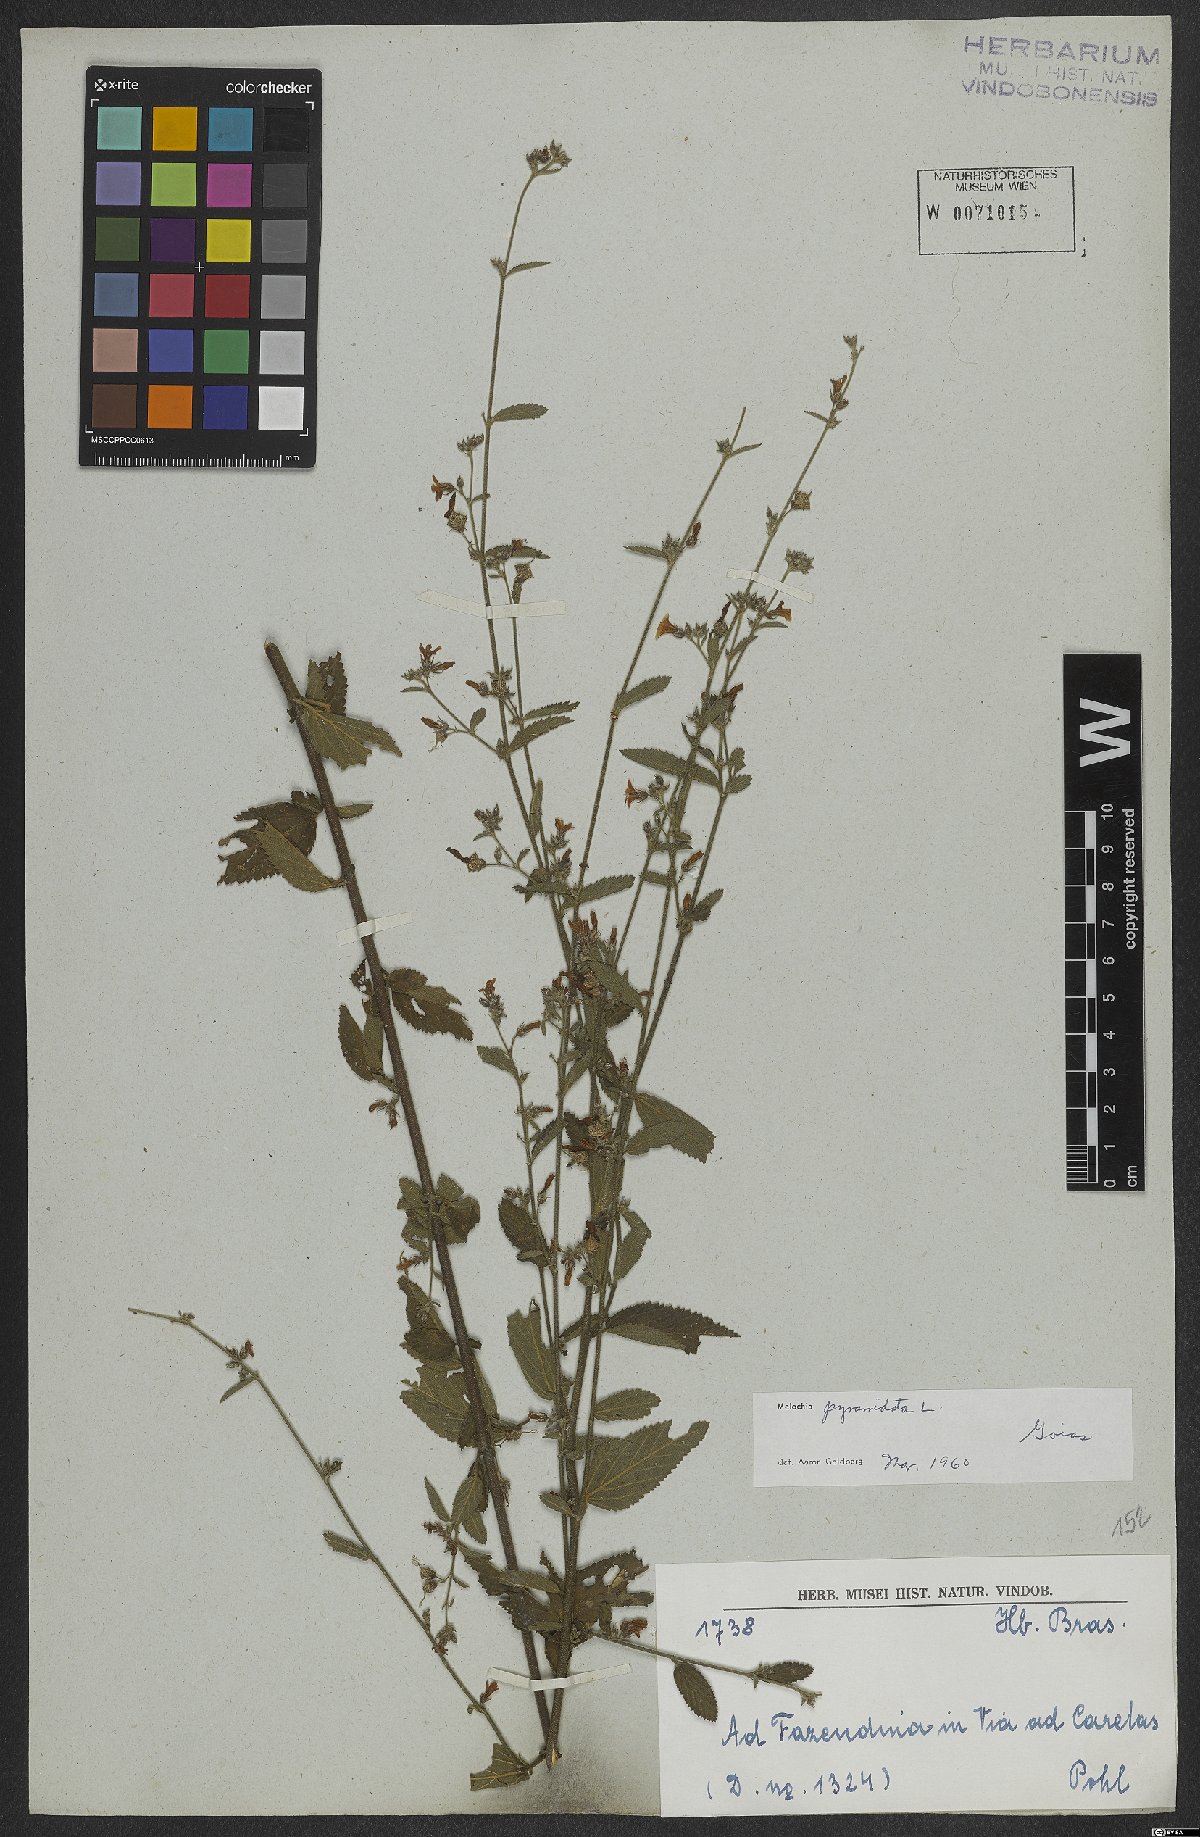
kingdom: Plantae
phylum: Tracheophyta
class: Magnoliopsida
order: Malvales
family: Malvaceae
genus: Melochia
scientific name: Melochia pyramidata
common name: Pyramidflower
